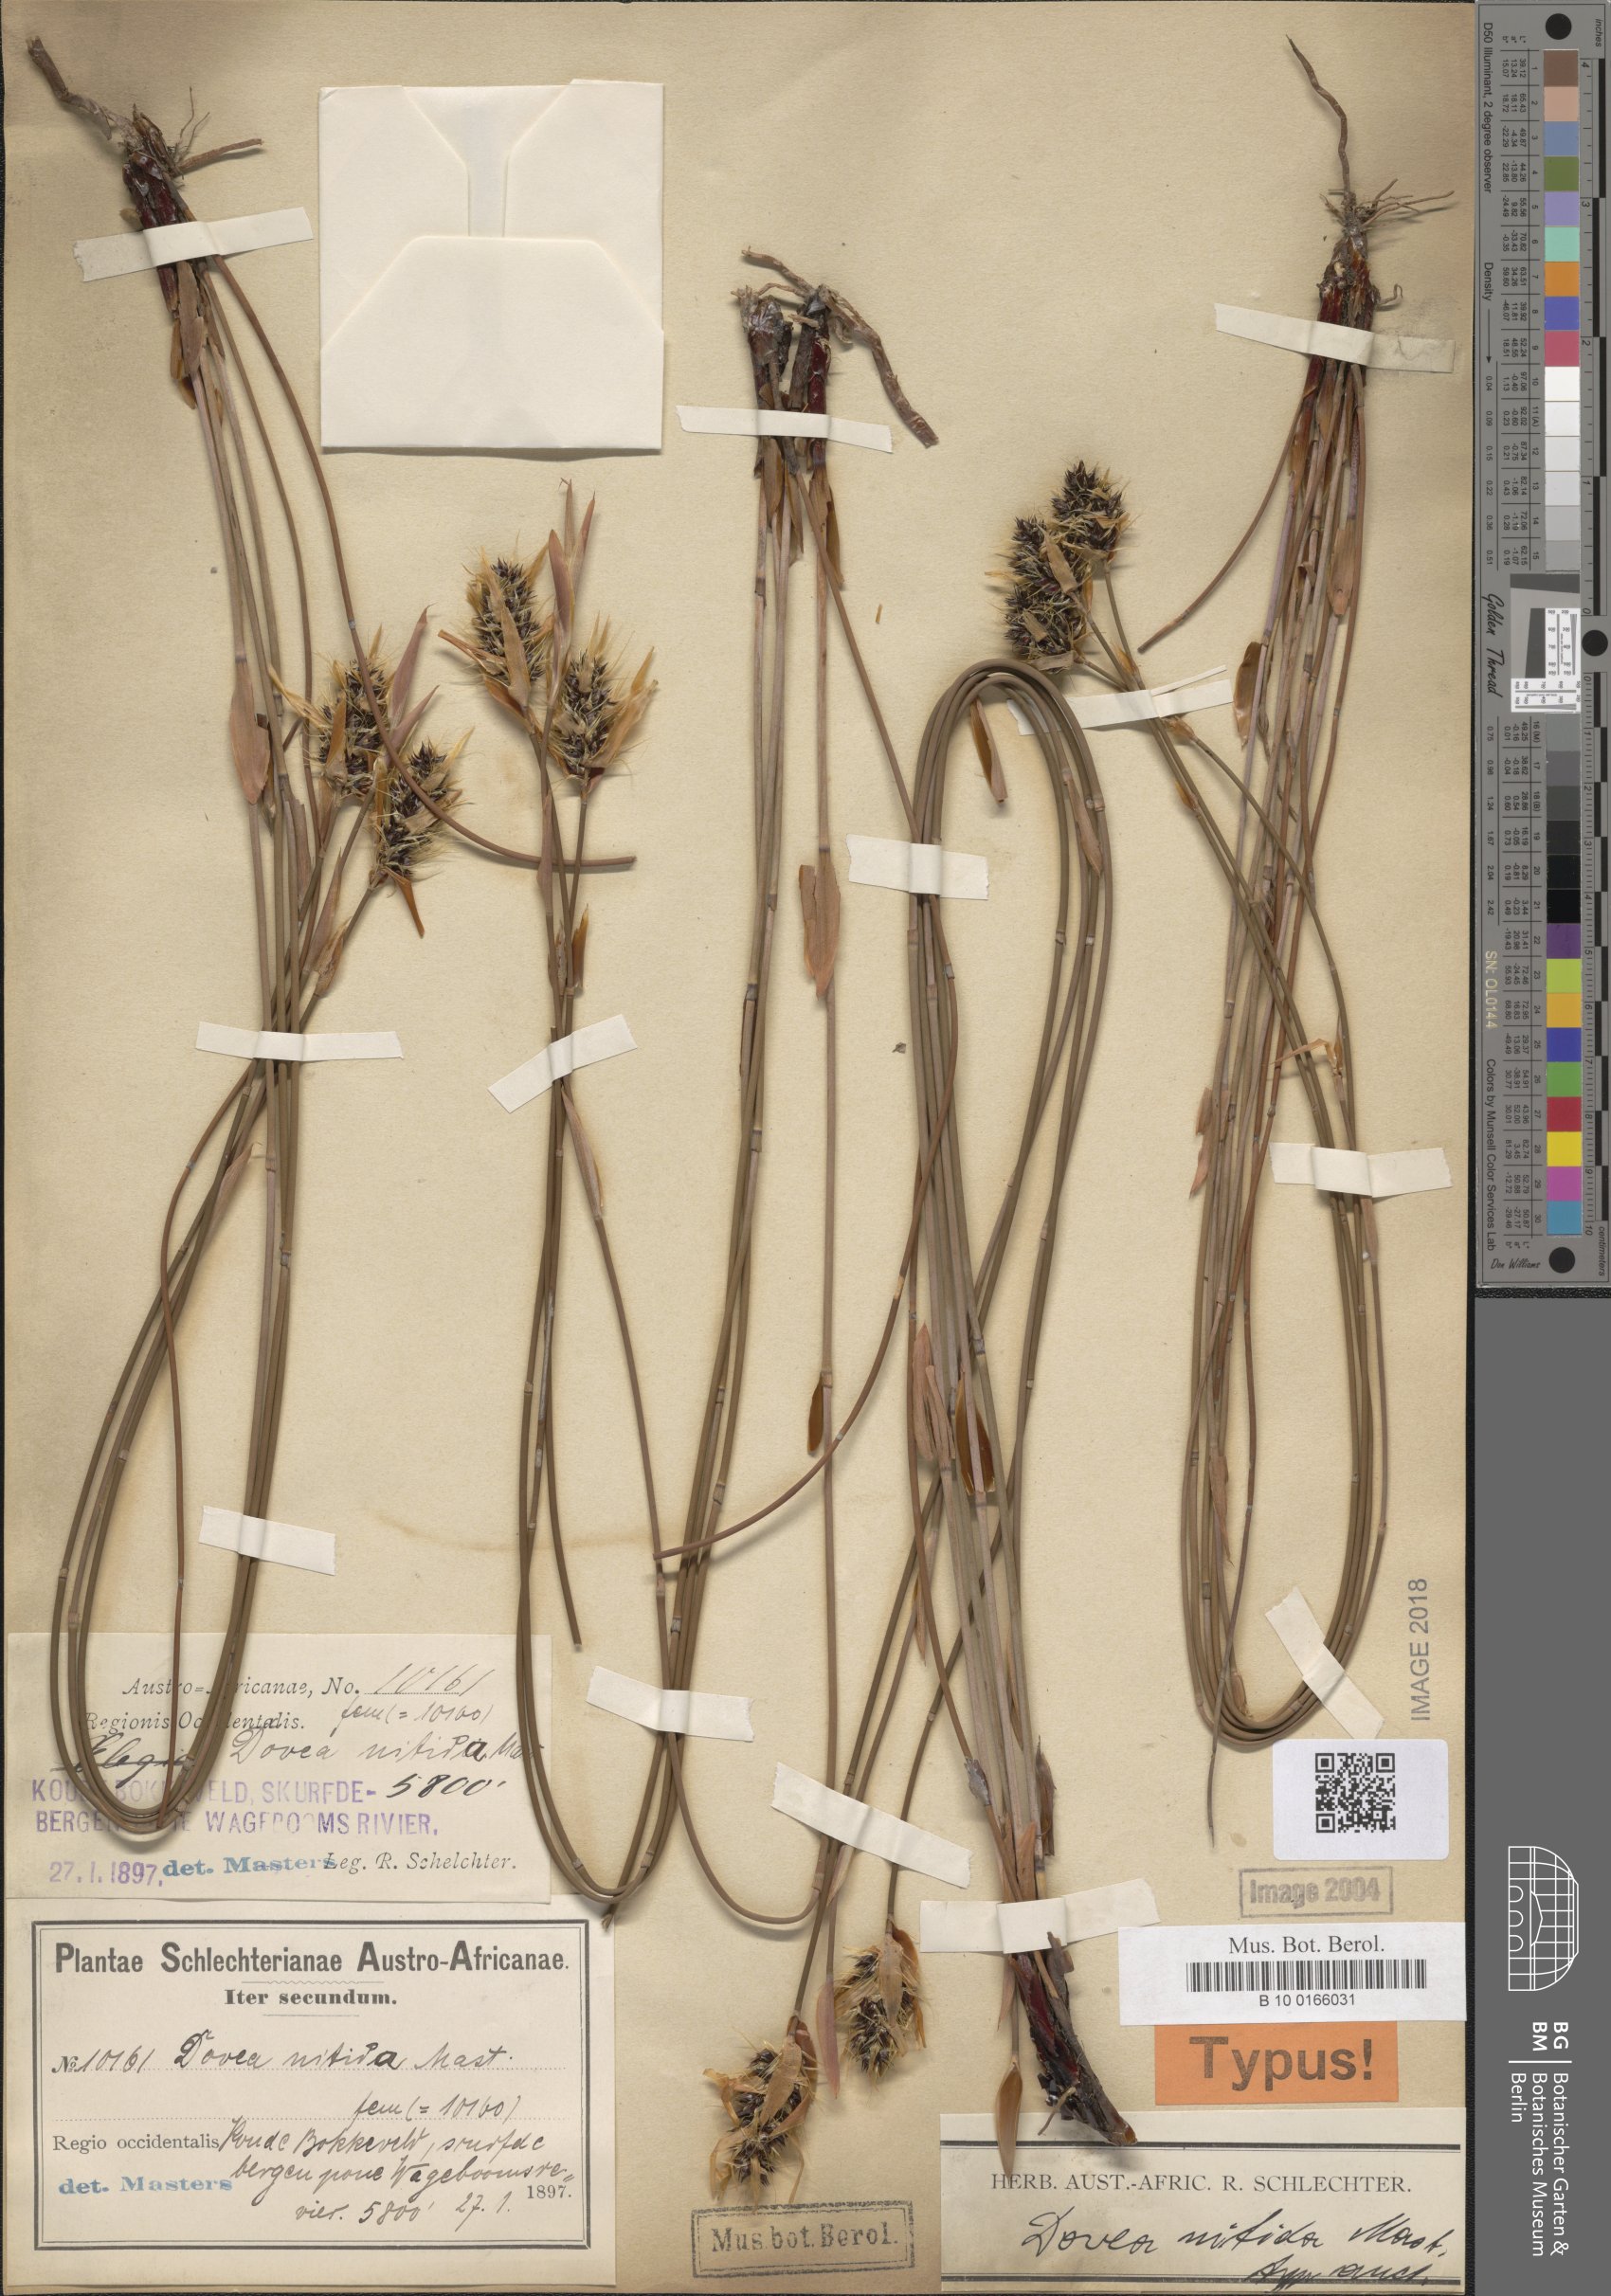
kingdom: Plantae
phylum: Tracheophyta
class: Liliopsida
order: Poales
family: Restionaceae
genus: Askidiosperma
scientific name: Askidiosperma nitidum
